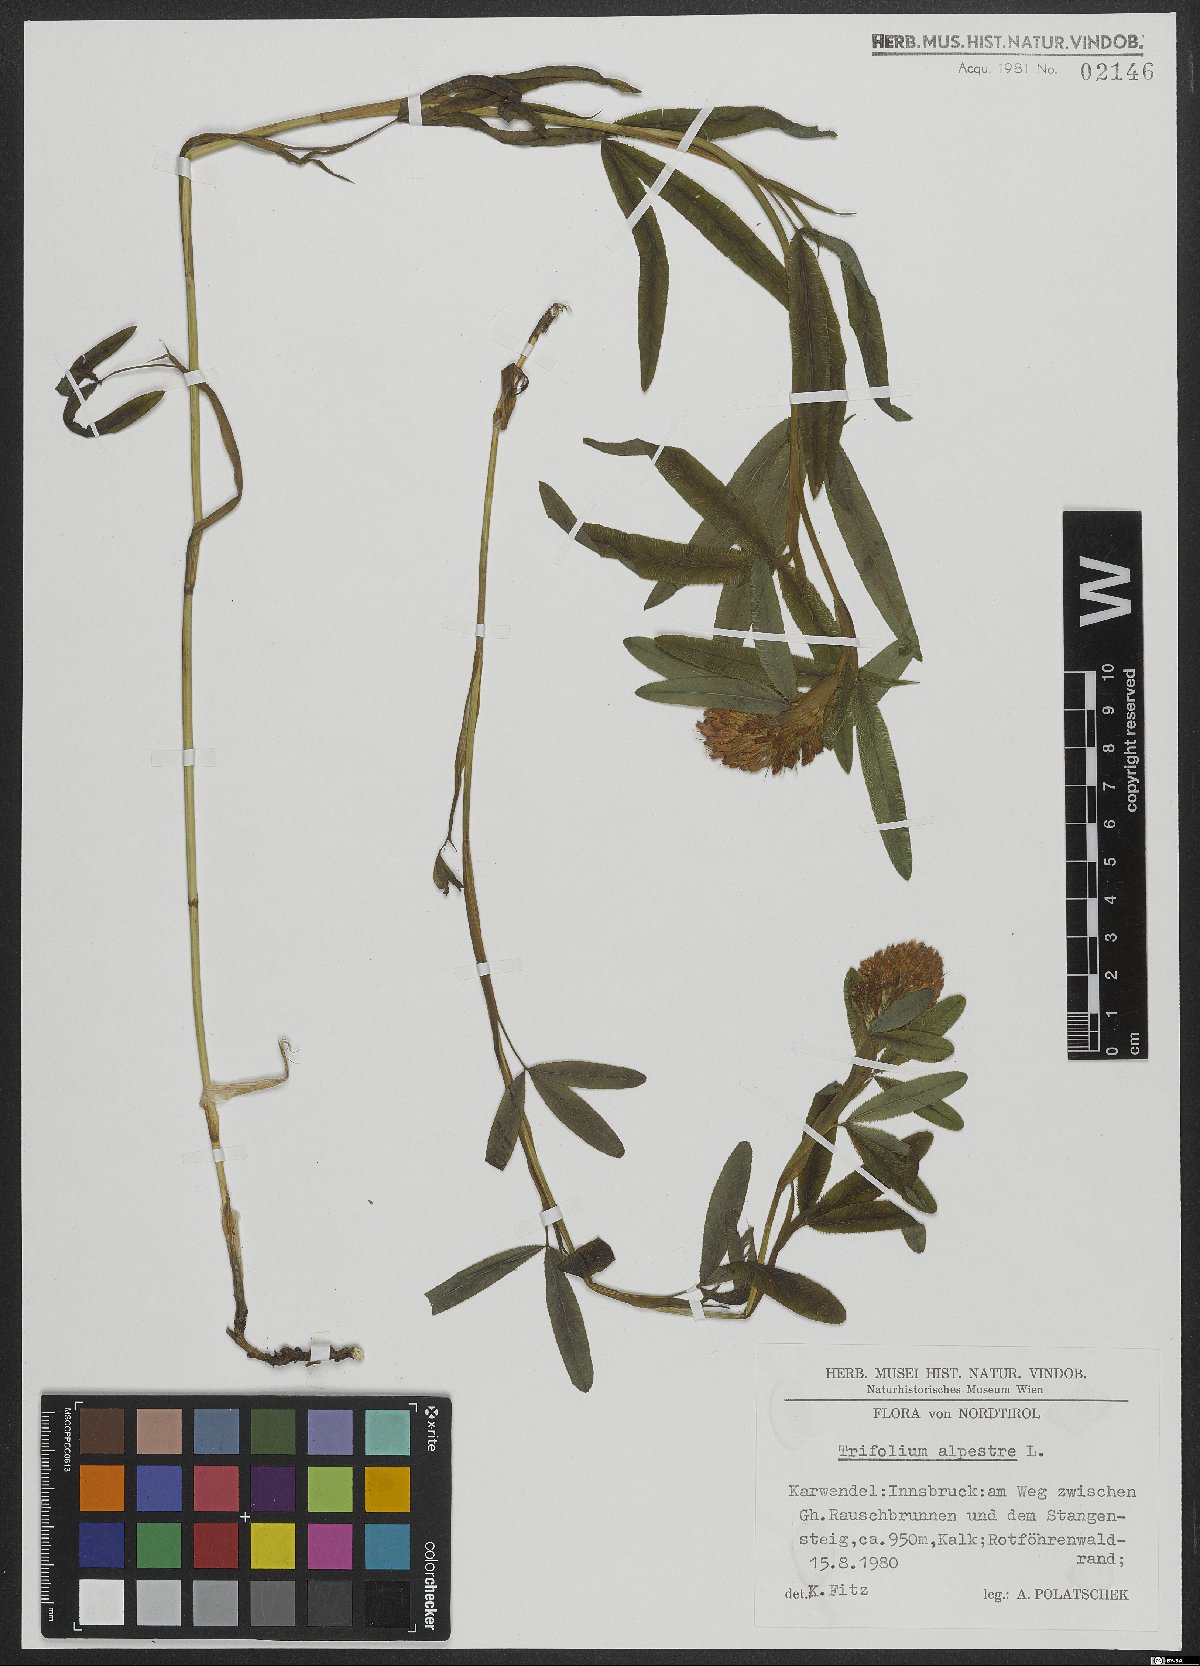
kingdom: Plantae
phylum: Tracheophyta
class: Magnoliopsida
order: Fabales
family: Fabaceae
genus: Trifolium
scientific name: Trifolium alpestre
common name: Owl-head clover
